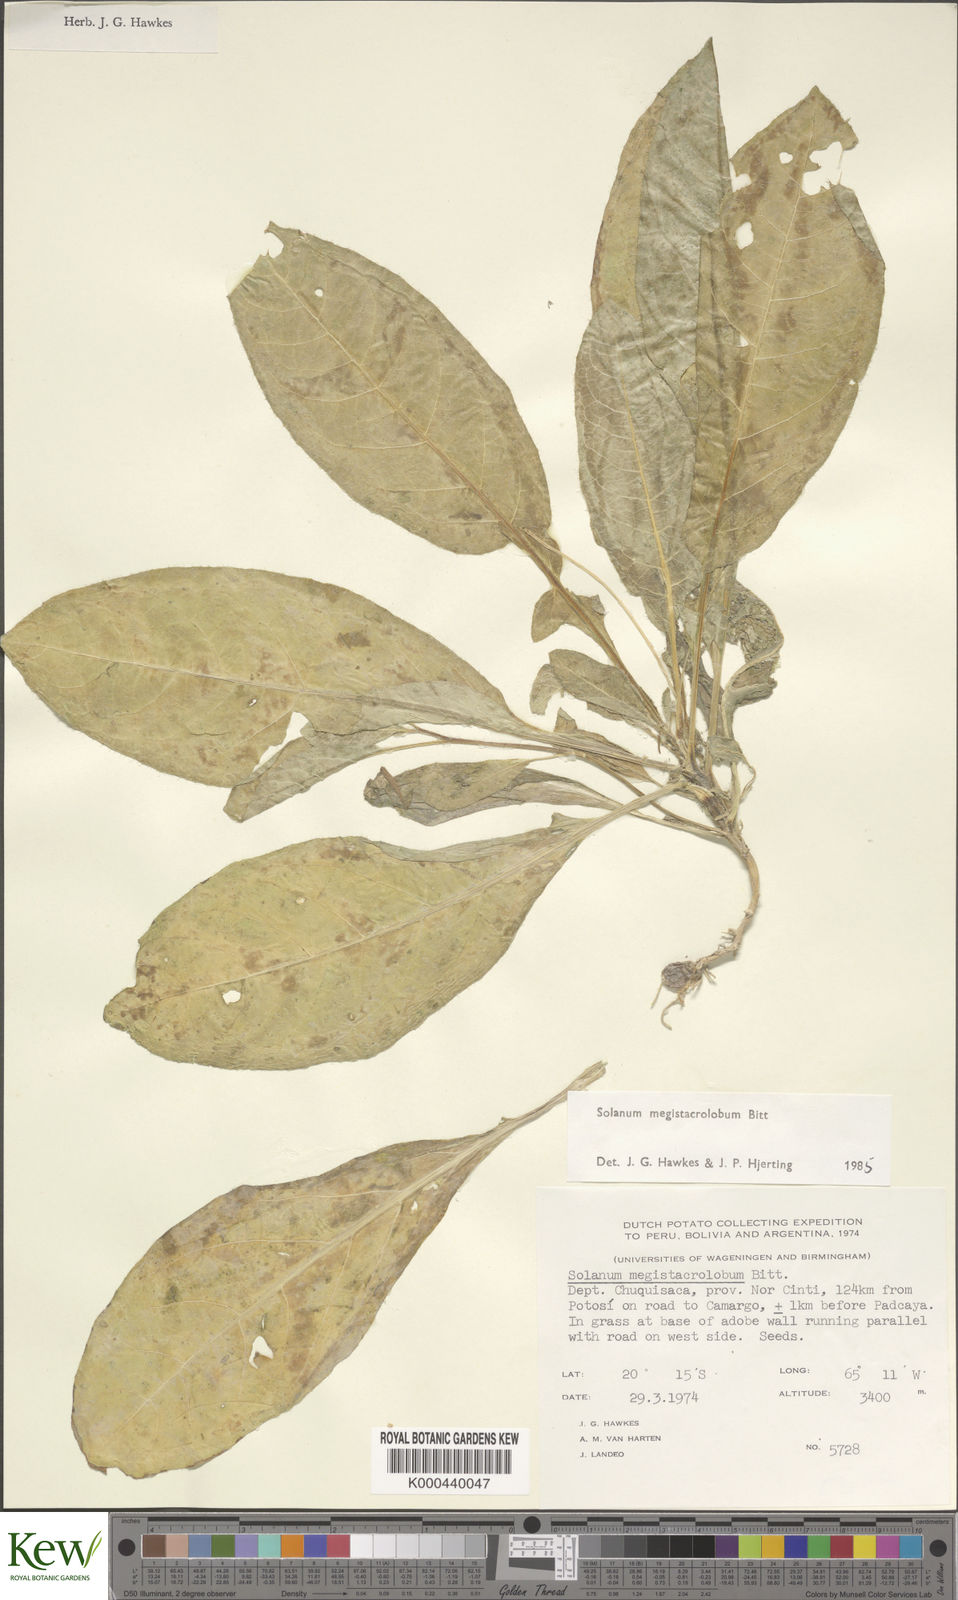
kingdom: Plantae
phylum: Tracheophyta
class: Magnoliopsida
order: Solanales
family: Solanaceae
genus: Solanum
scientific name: Solanum boliviense
